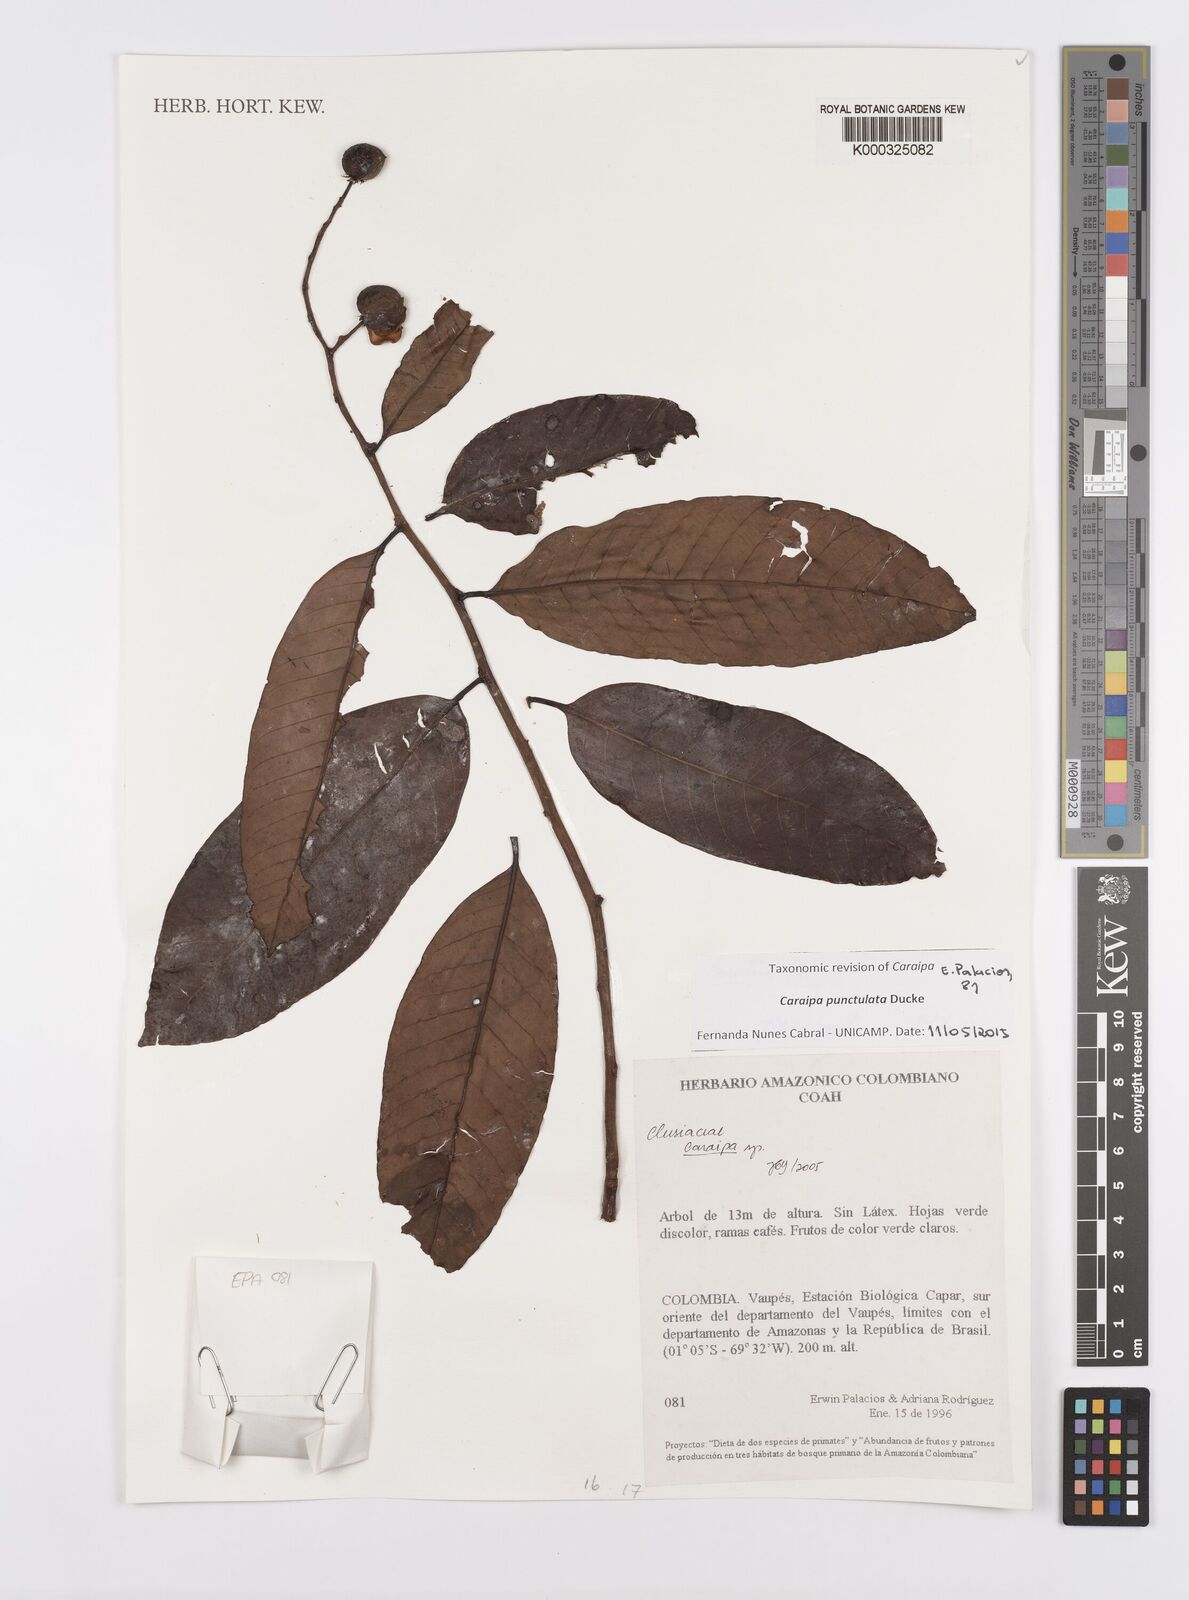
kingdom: Plantae
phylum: Tracheophyta
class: Magnoliopsida
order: Malpighiales
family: Calophyllaceae
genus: Caraipa
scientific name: Caraipa
